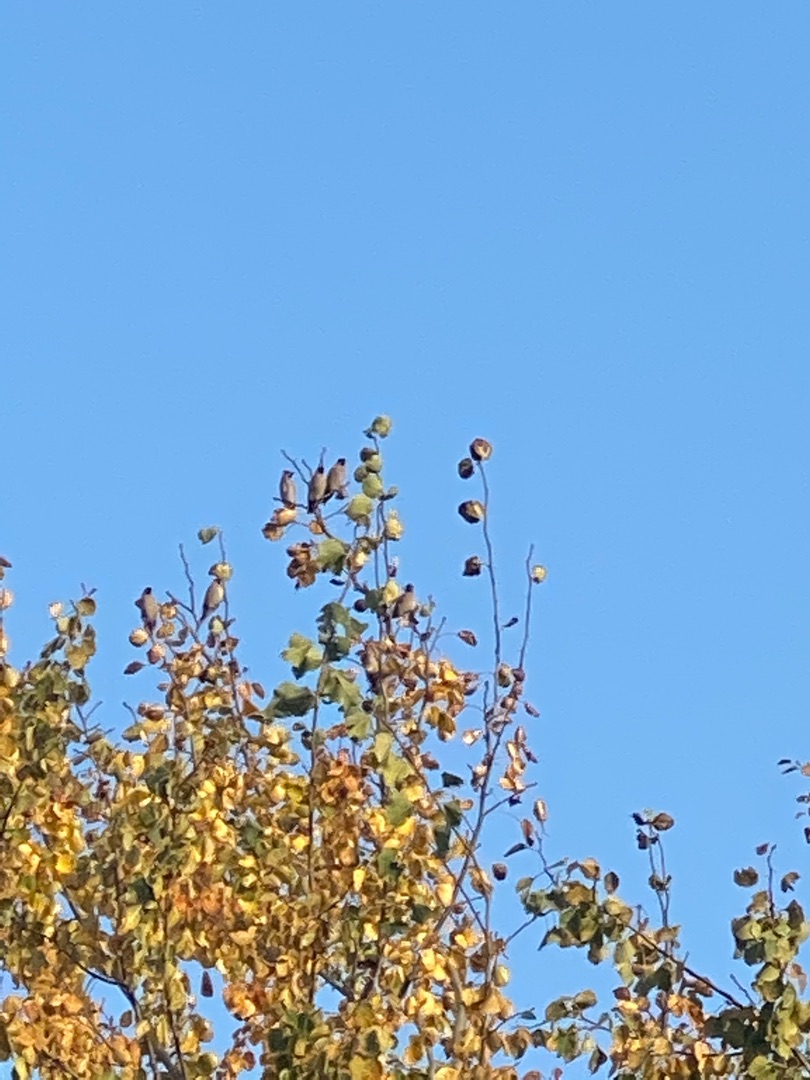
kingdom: Animalia
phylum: Chordata
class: Aves
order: Passeriformes
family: Bombycillidae
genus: Bombycilla
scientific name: Bombycilla garrulus
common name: Silkehale
